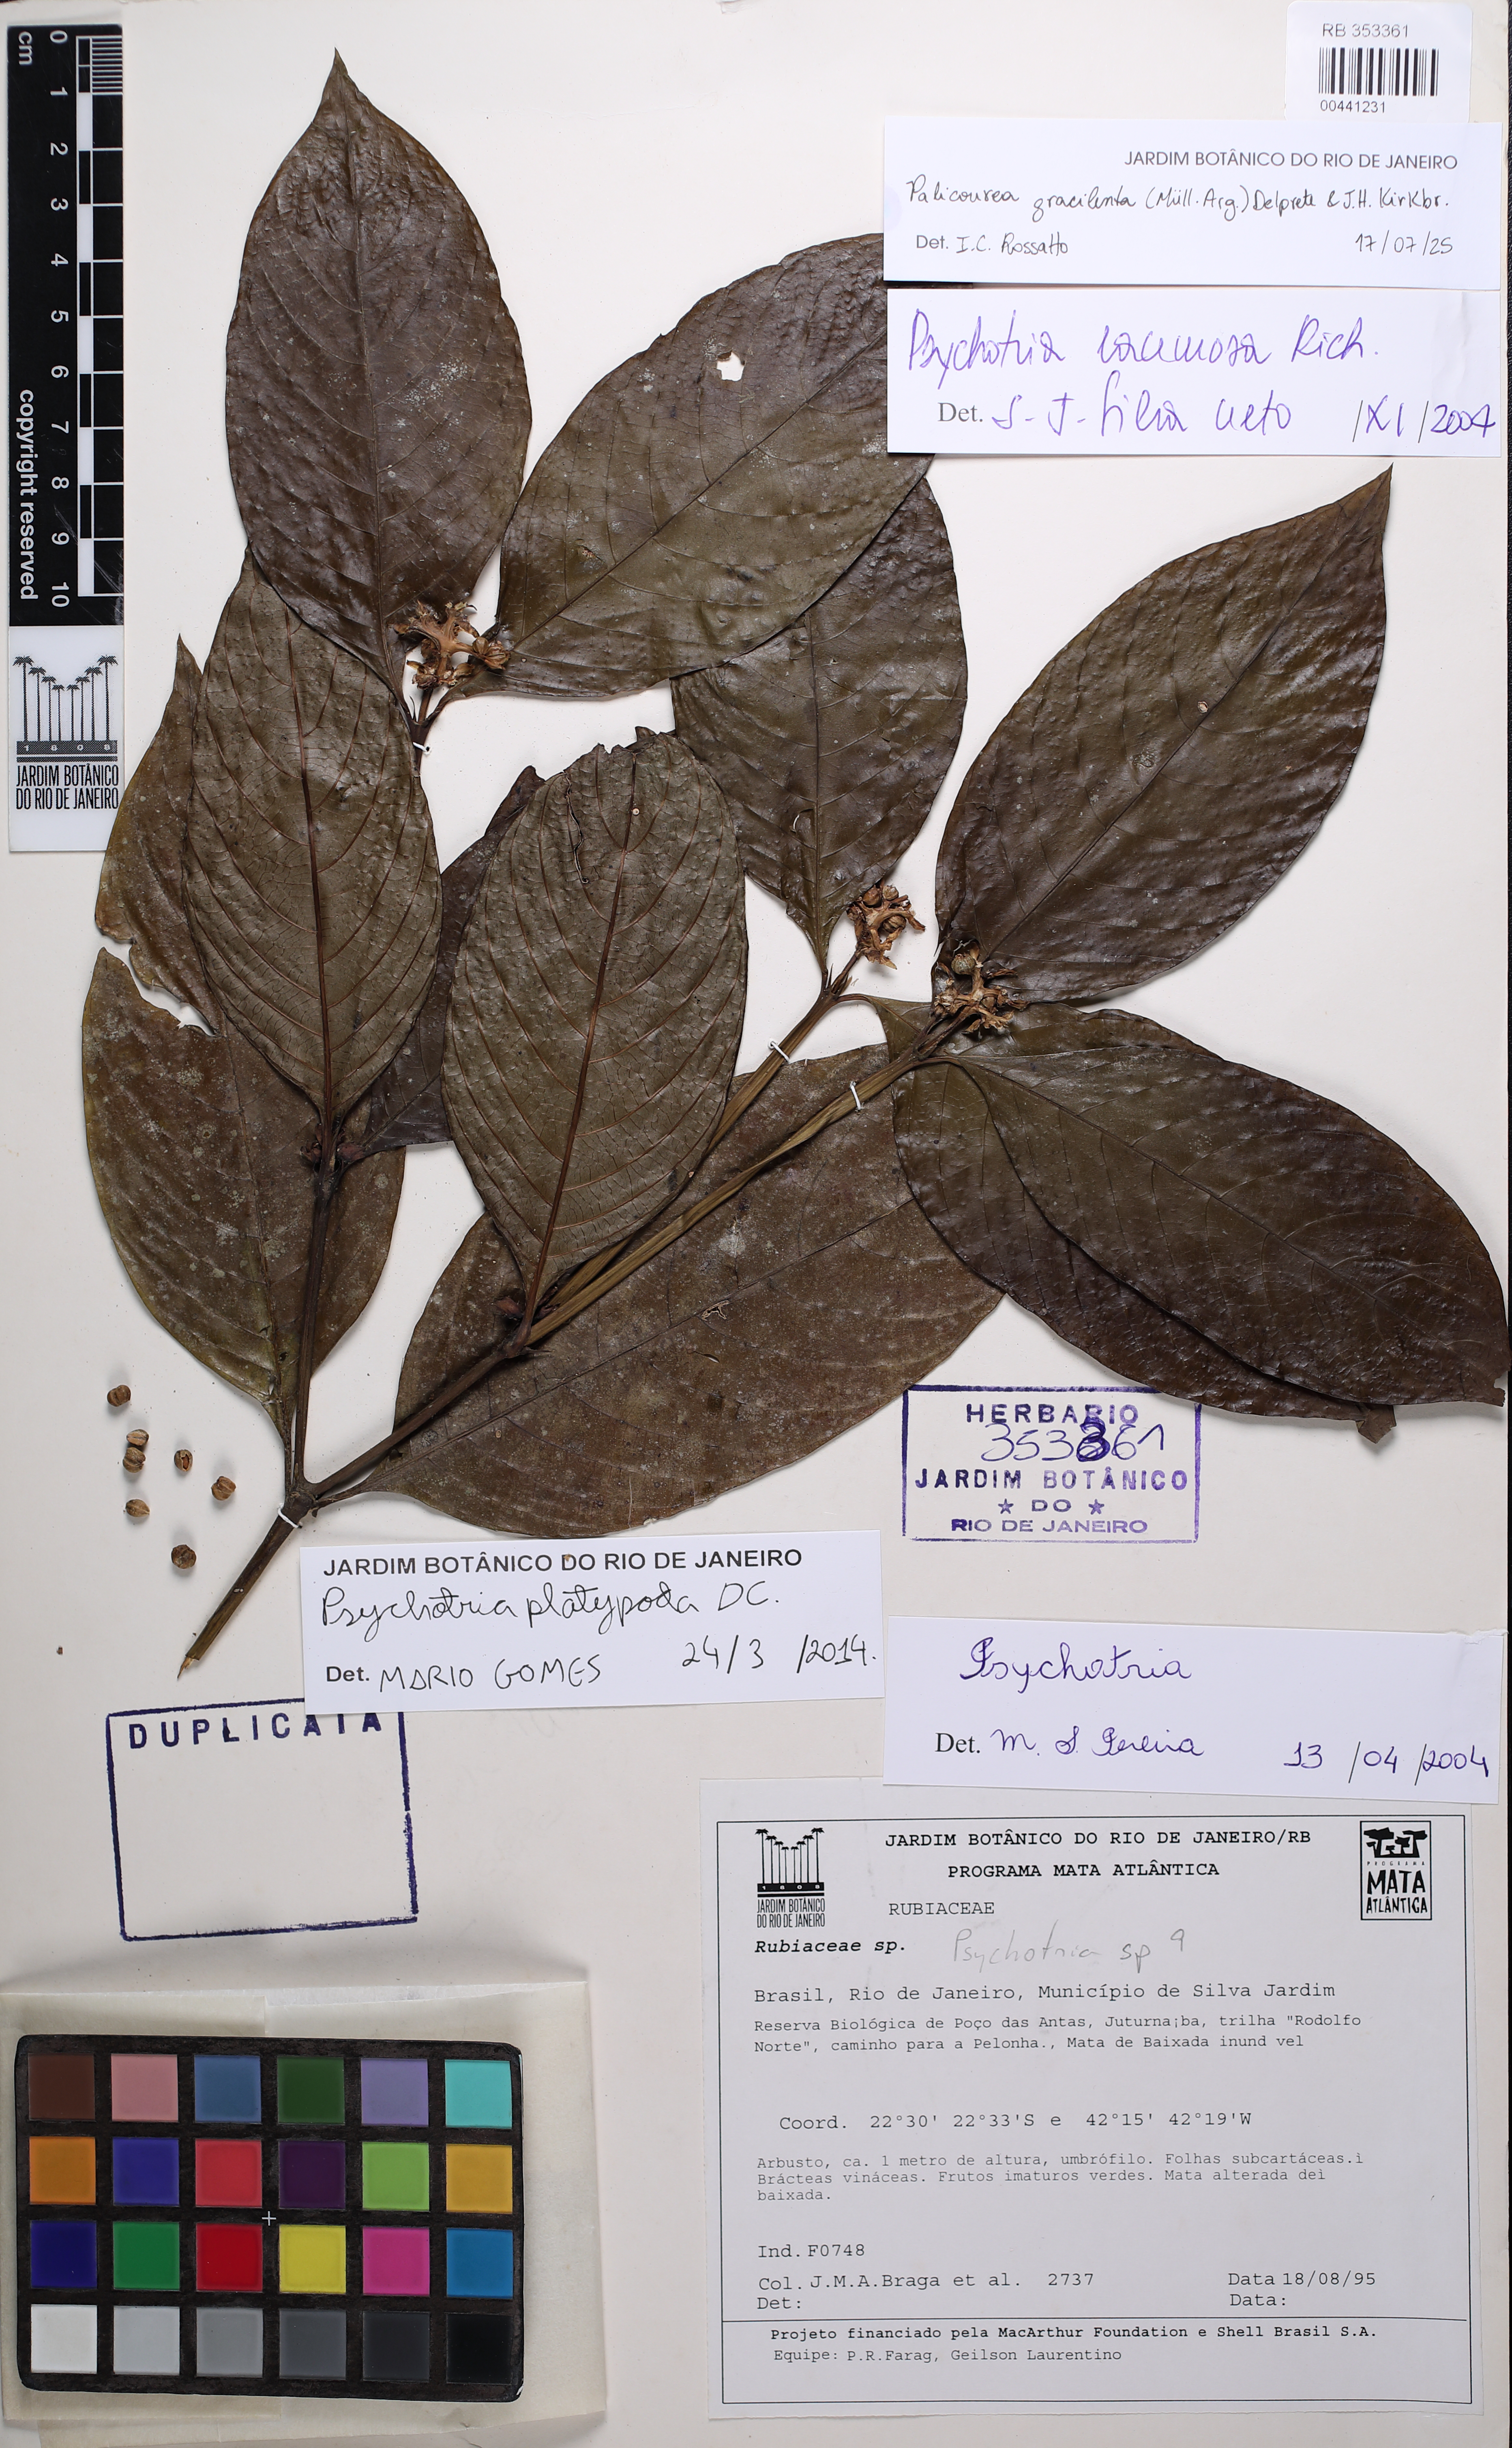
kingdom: Plantae
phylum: Tracheophyta
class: Magnoliopsida
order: Gentianales
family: Rubiaceae
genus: Palicourea
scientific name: Palicourea dichotoma
